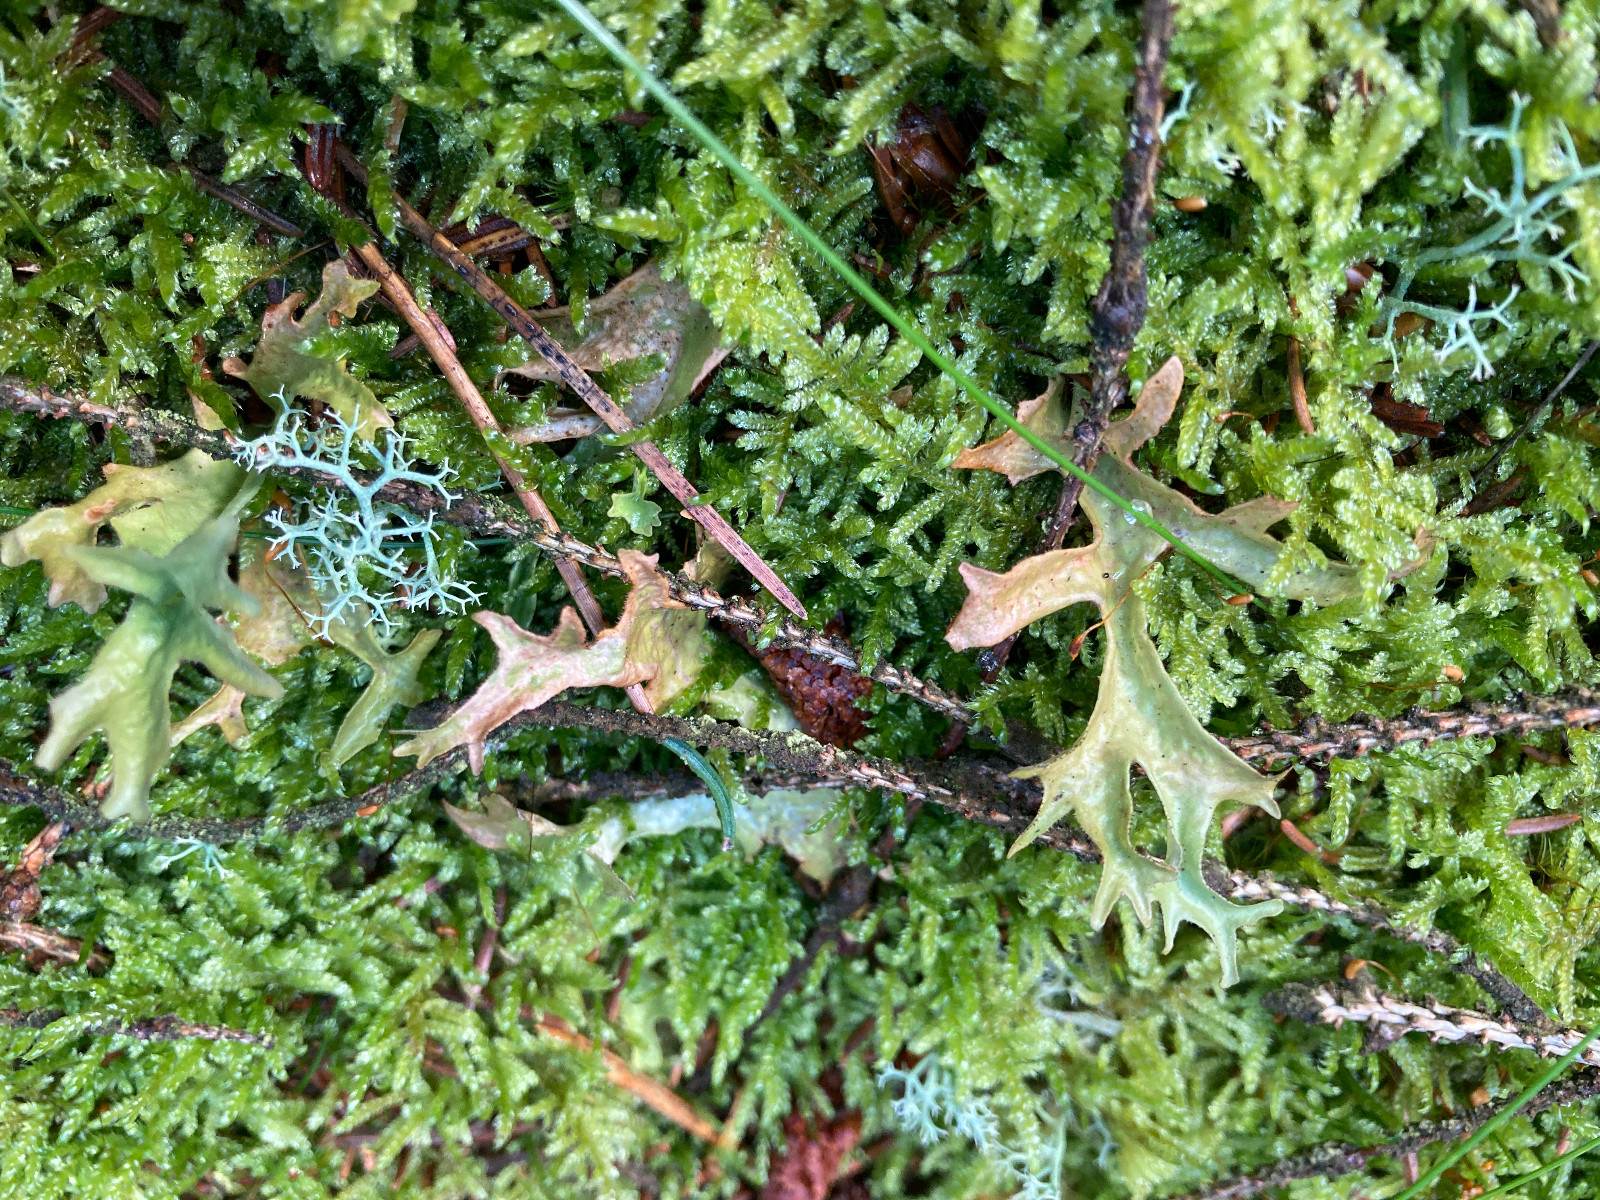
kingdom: Fungi
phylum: Ascomycota
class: Lecanoromycetes
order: Lecanorales
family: Parmeliaceae
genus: Cetraria
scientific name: Cetraria islandica
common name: islandsk kruslav
